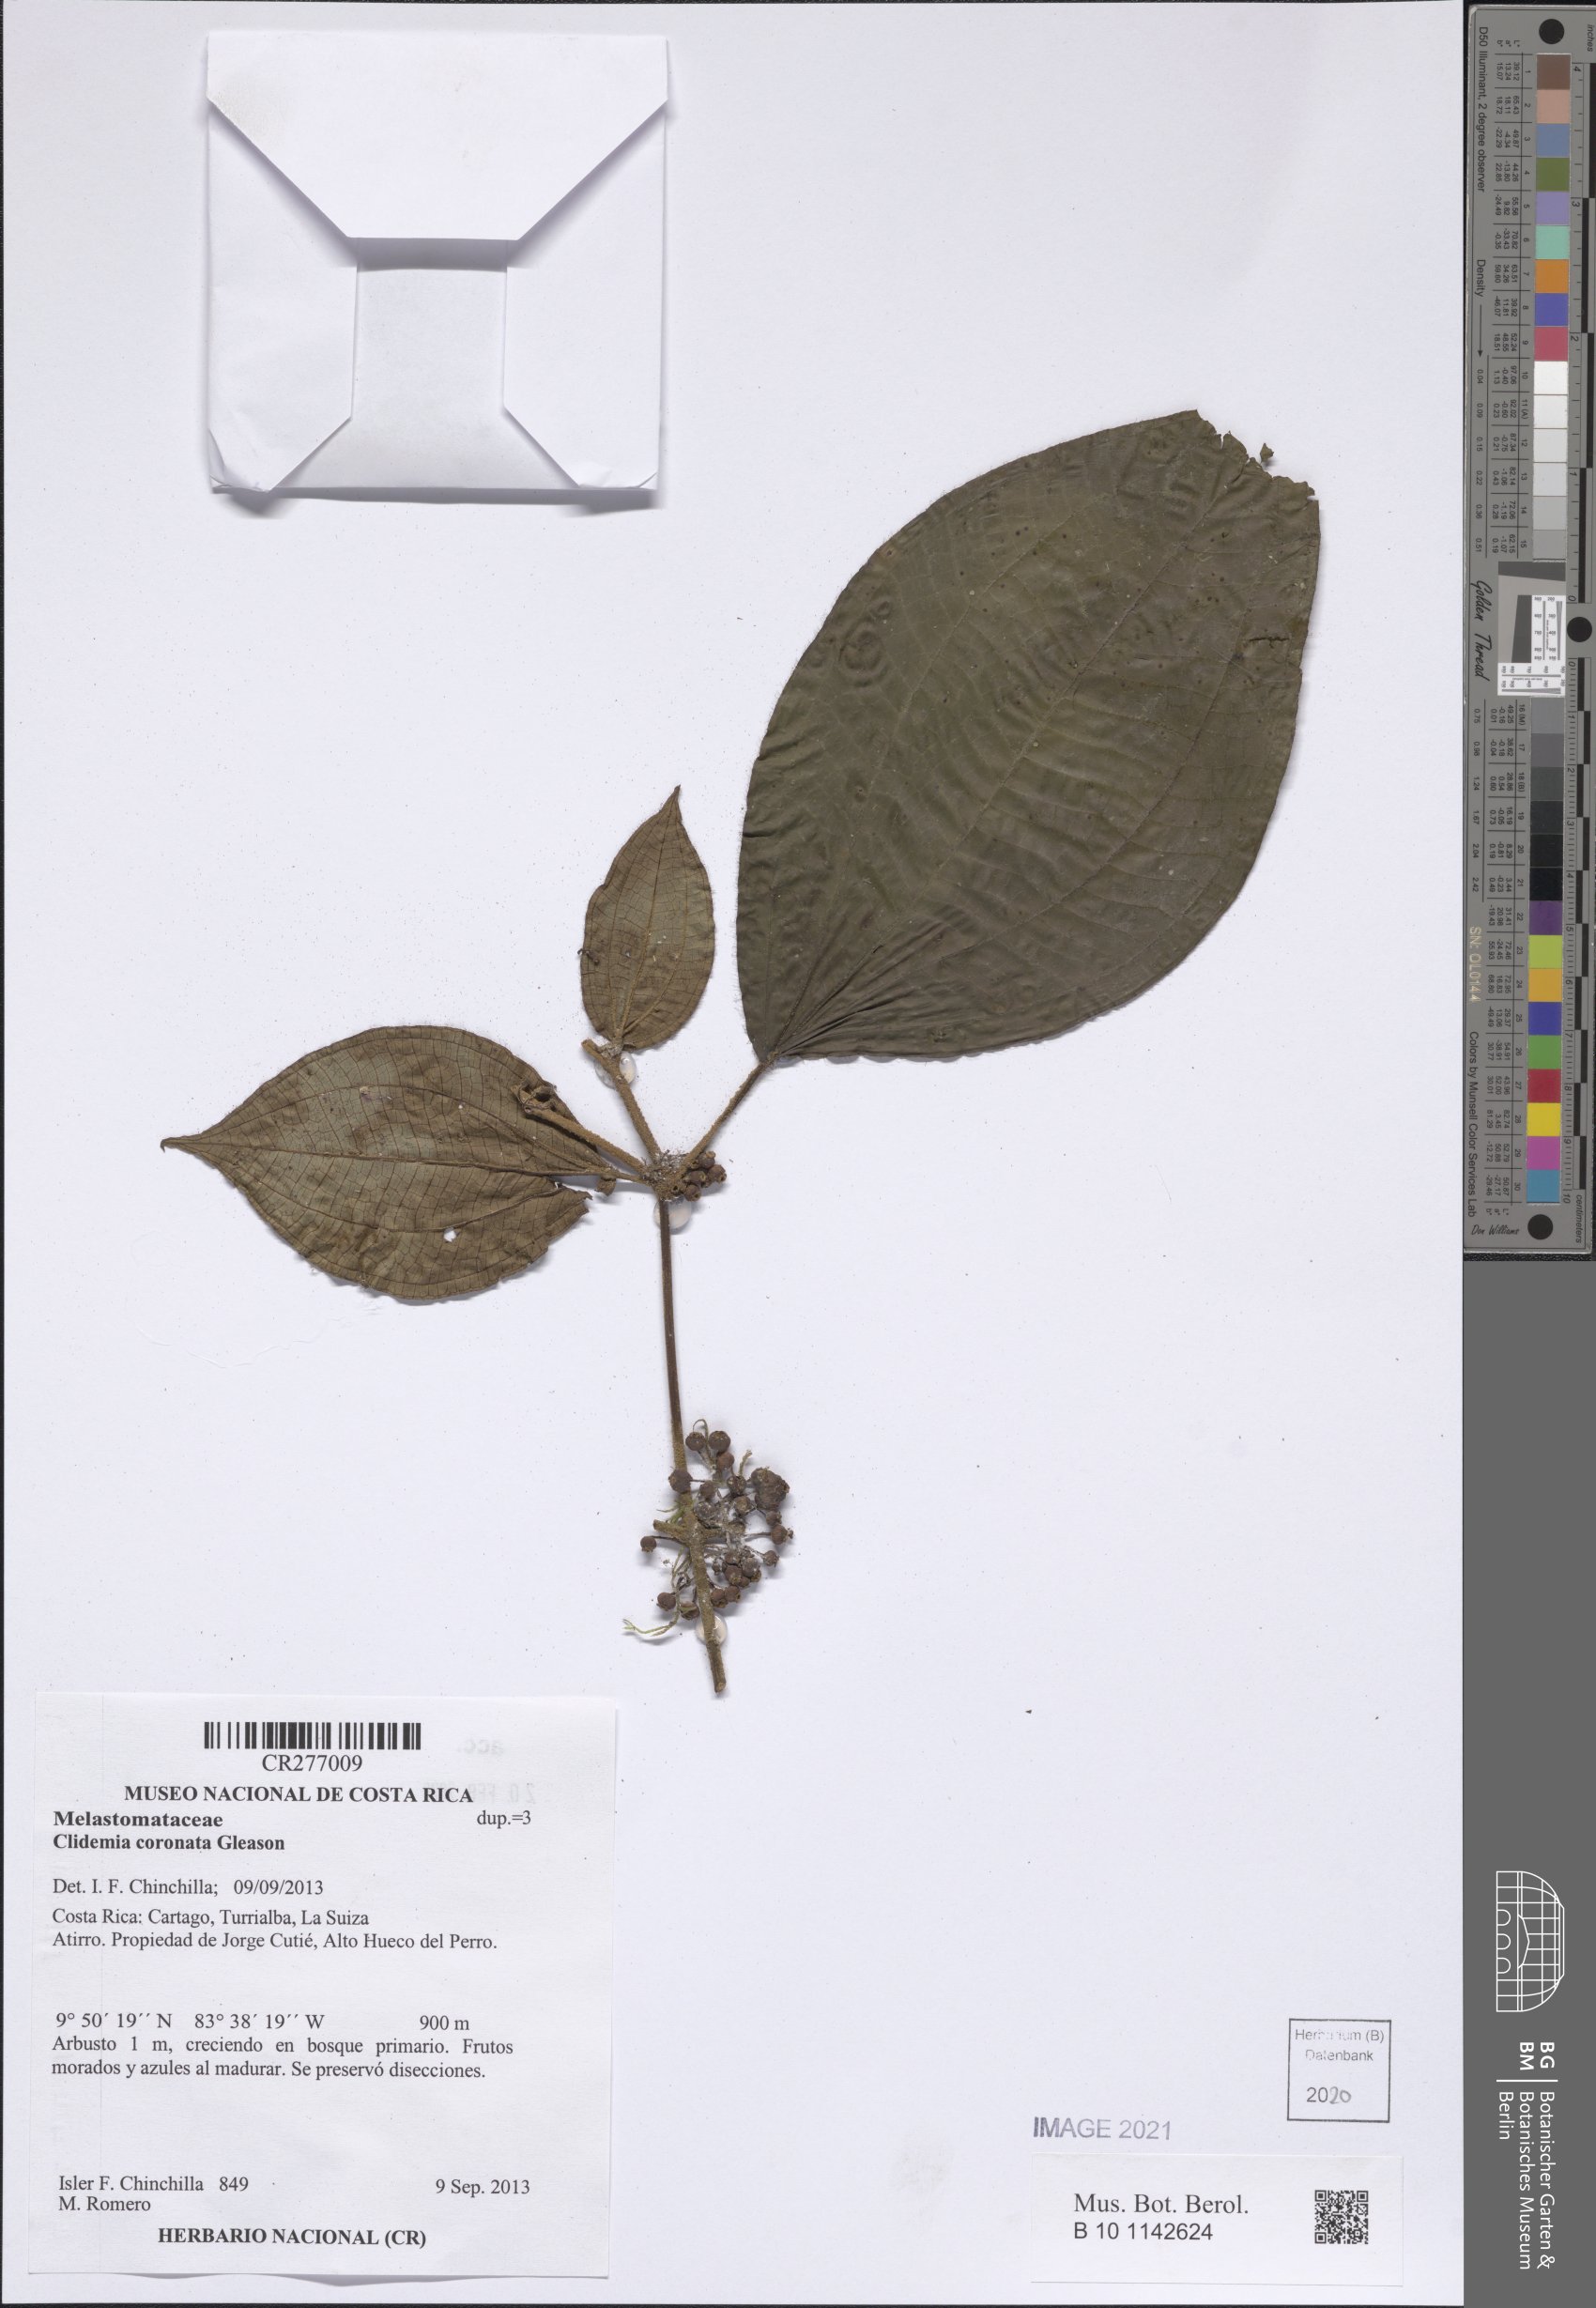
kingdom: Plantae
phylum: Tracheophyta
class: Magnoliopsida
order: Myrtales
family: Melastomataceae
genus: Miconia
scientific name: Miconia
